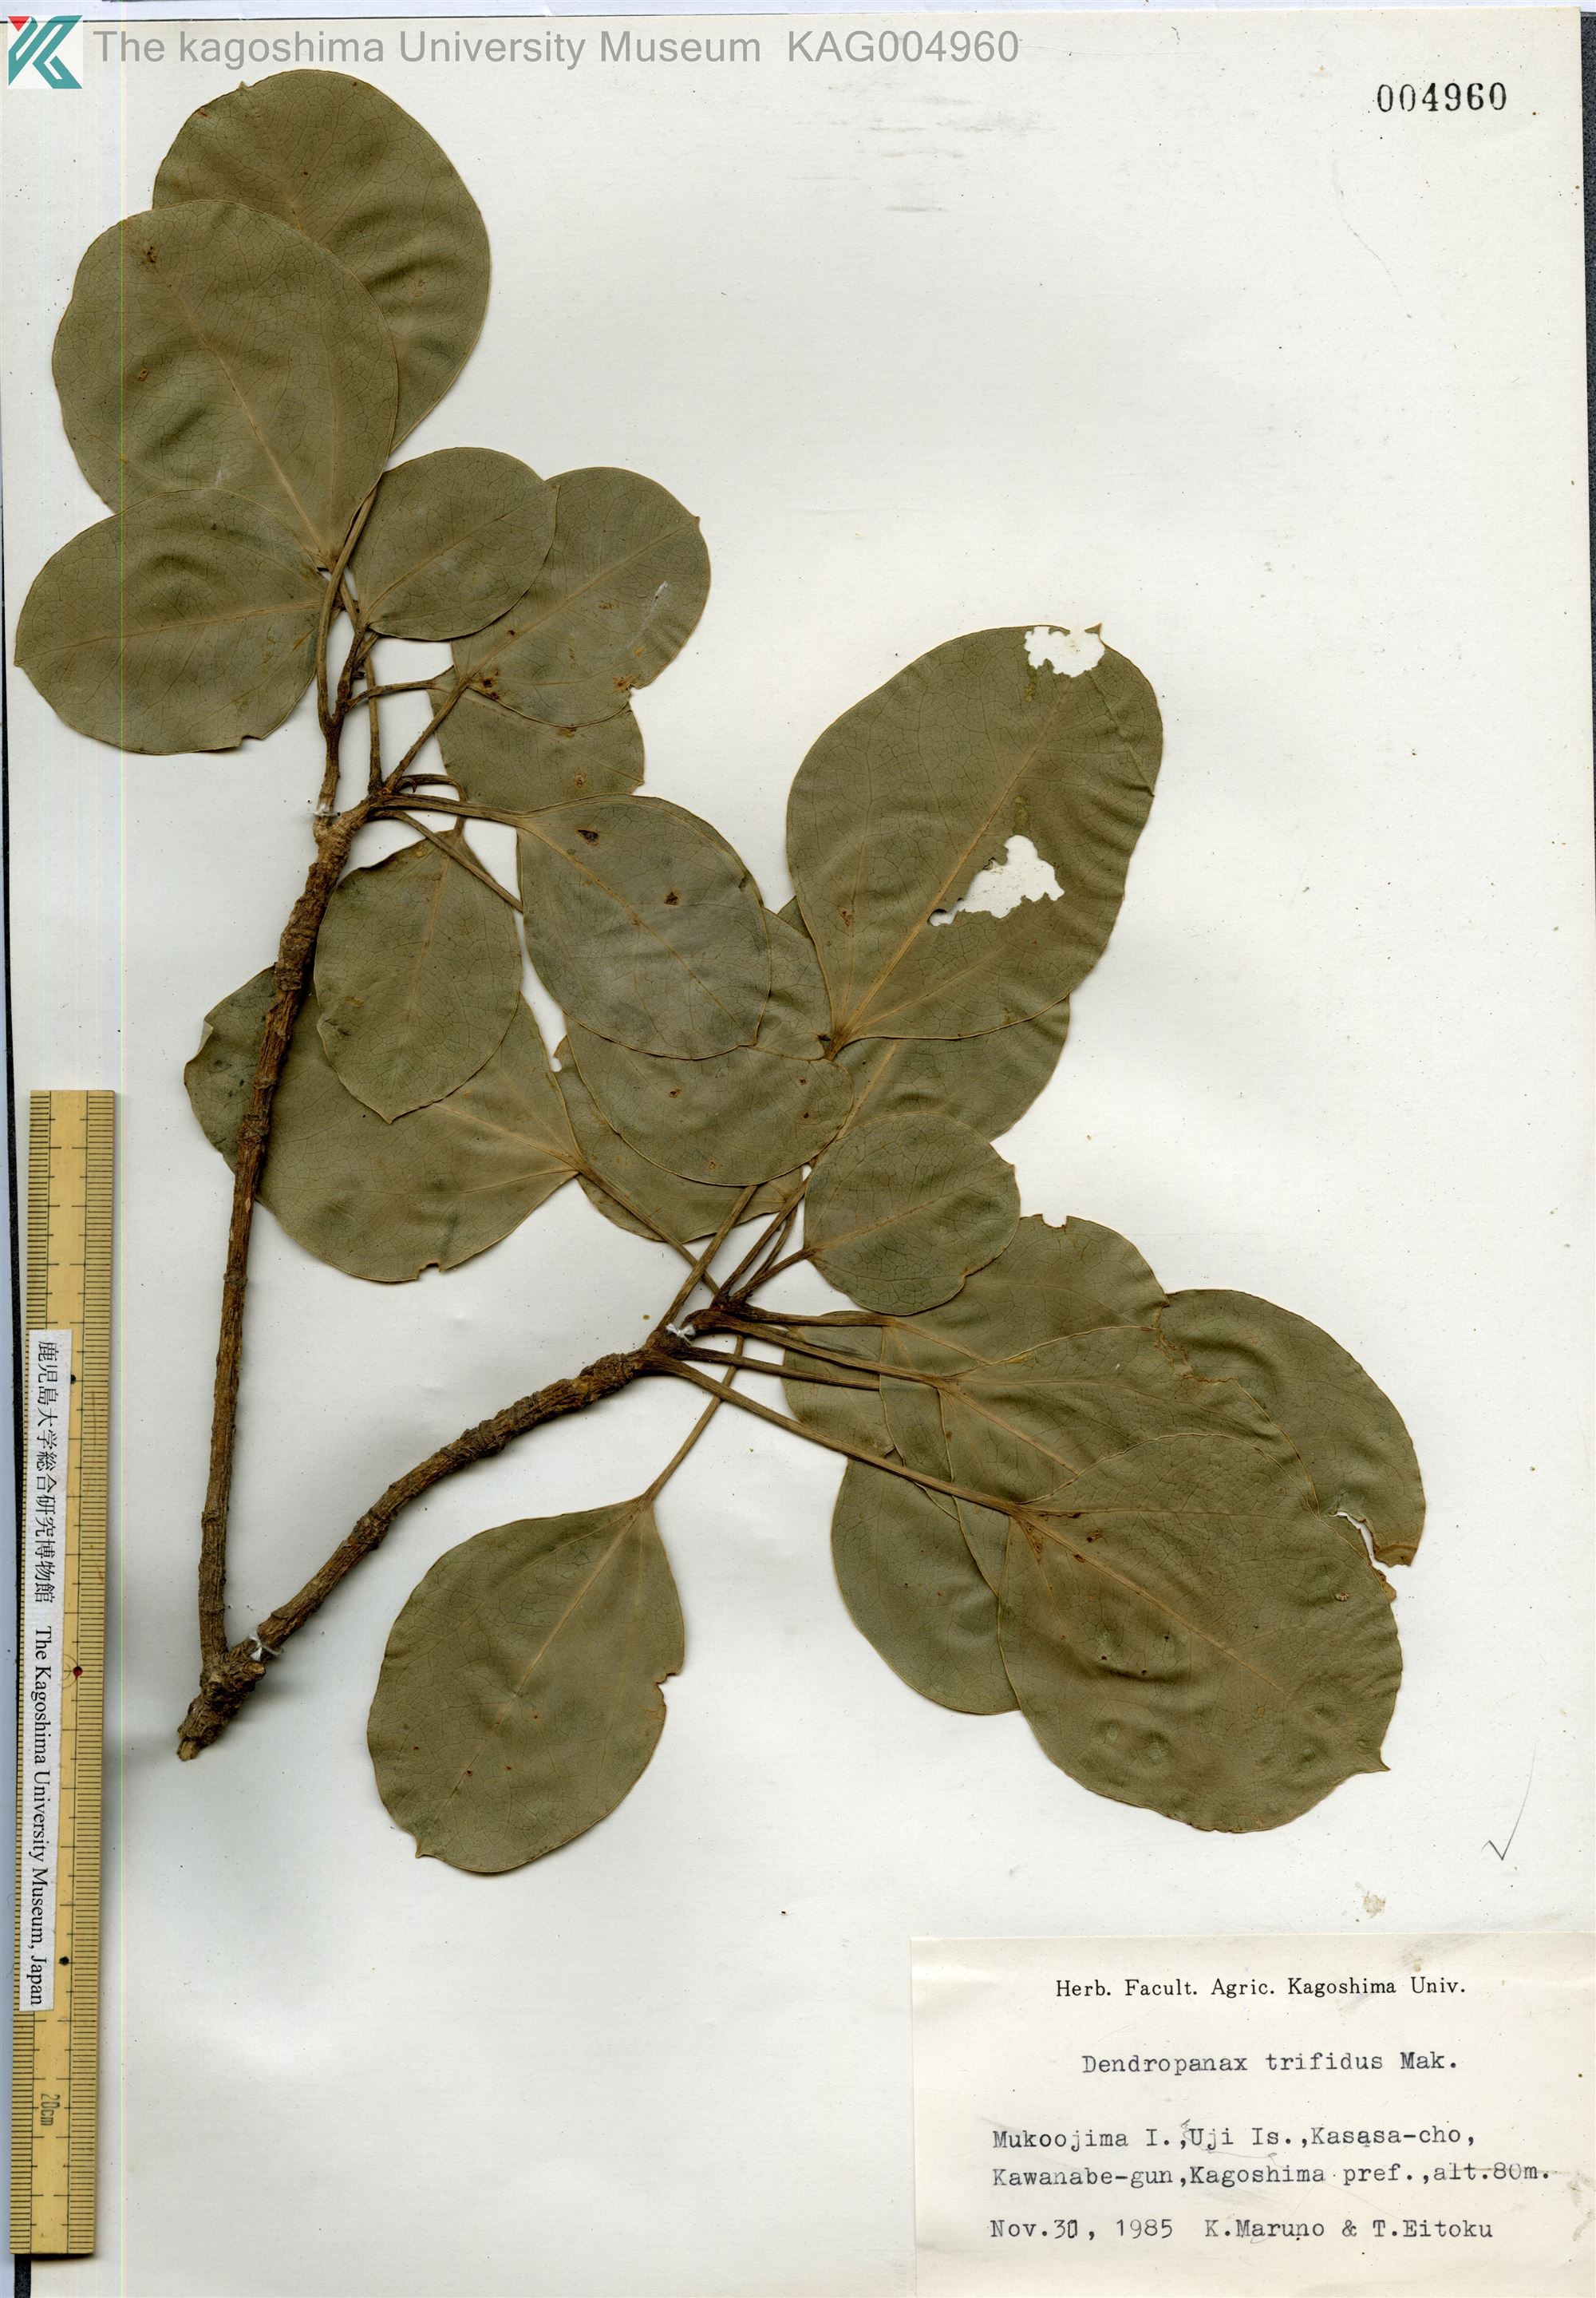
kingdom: Plantae
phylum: Tracheophyta
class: Magnoliopsida
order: Apiales
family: Araliaceae
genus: Dendropanax
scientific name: Dendropanax trifidus
